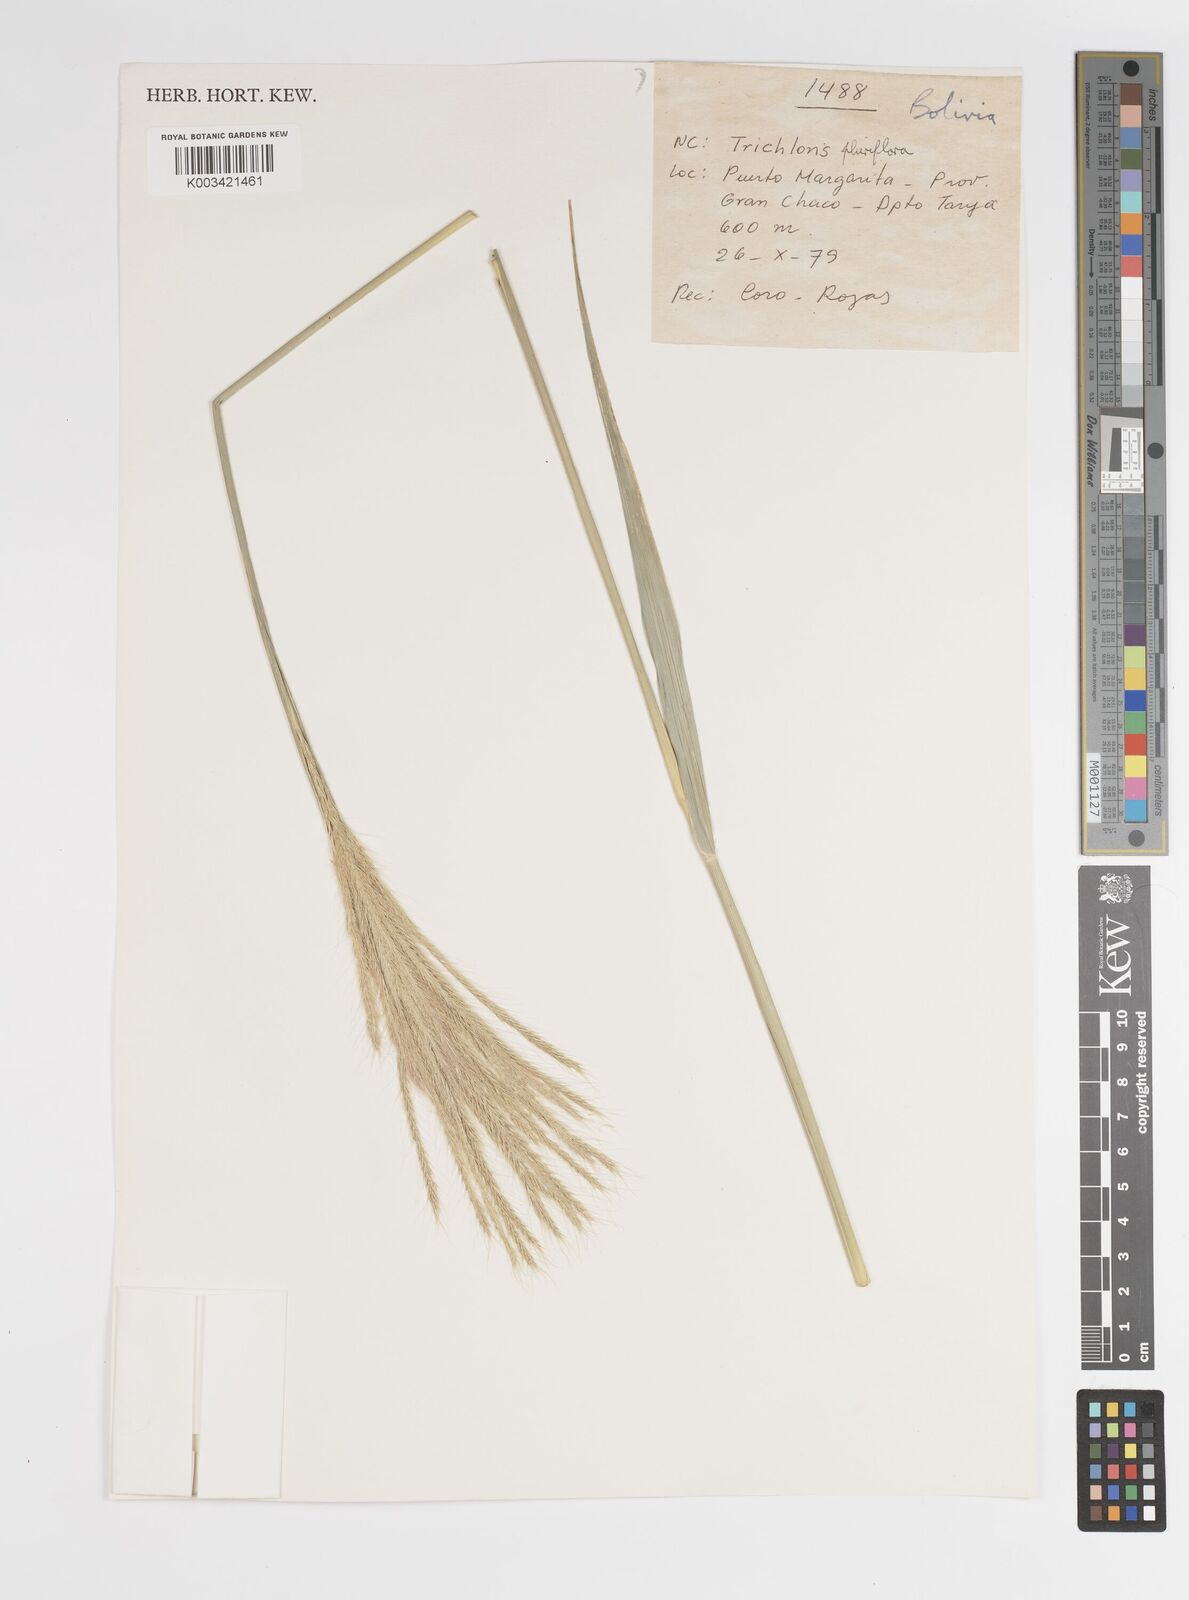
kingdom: Plantae
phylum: Tracheophyta
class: Liliopsida
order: Poales
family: Poaceae
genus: Leptochloa
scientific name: Leptochloa pluriflora
